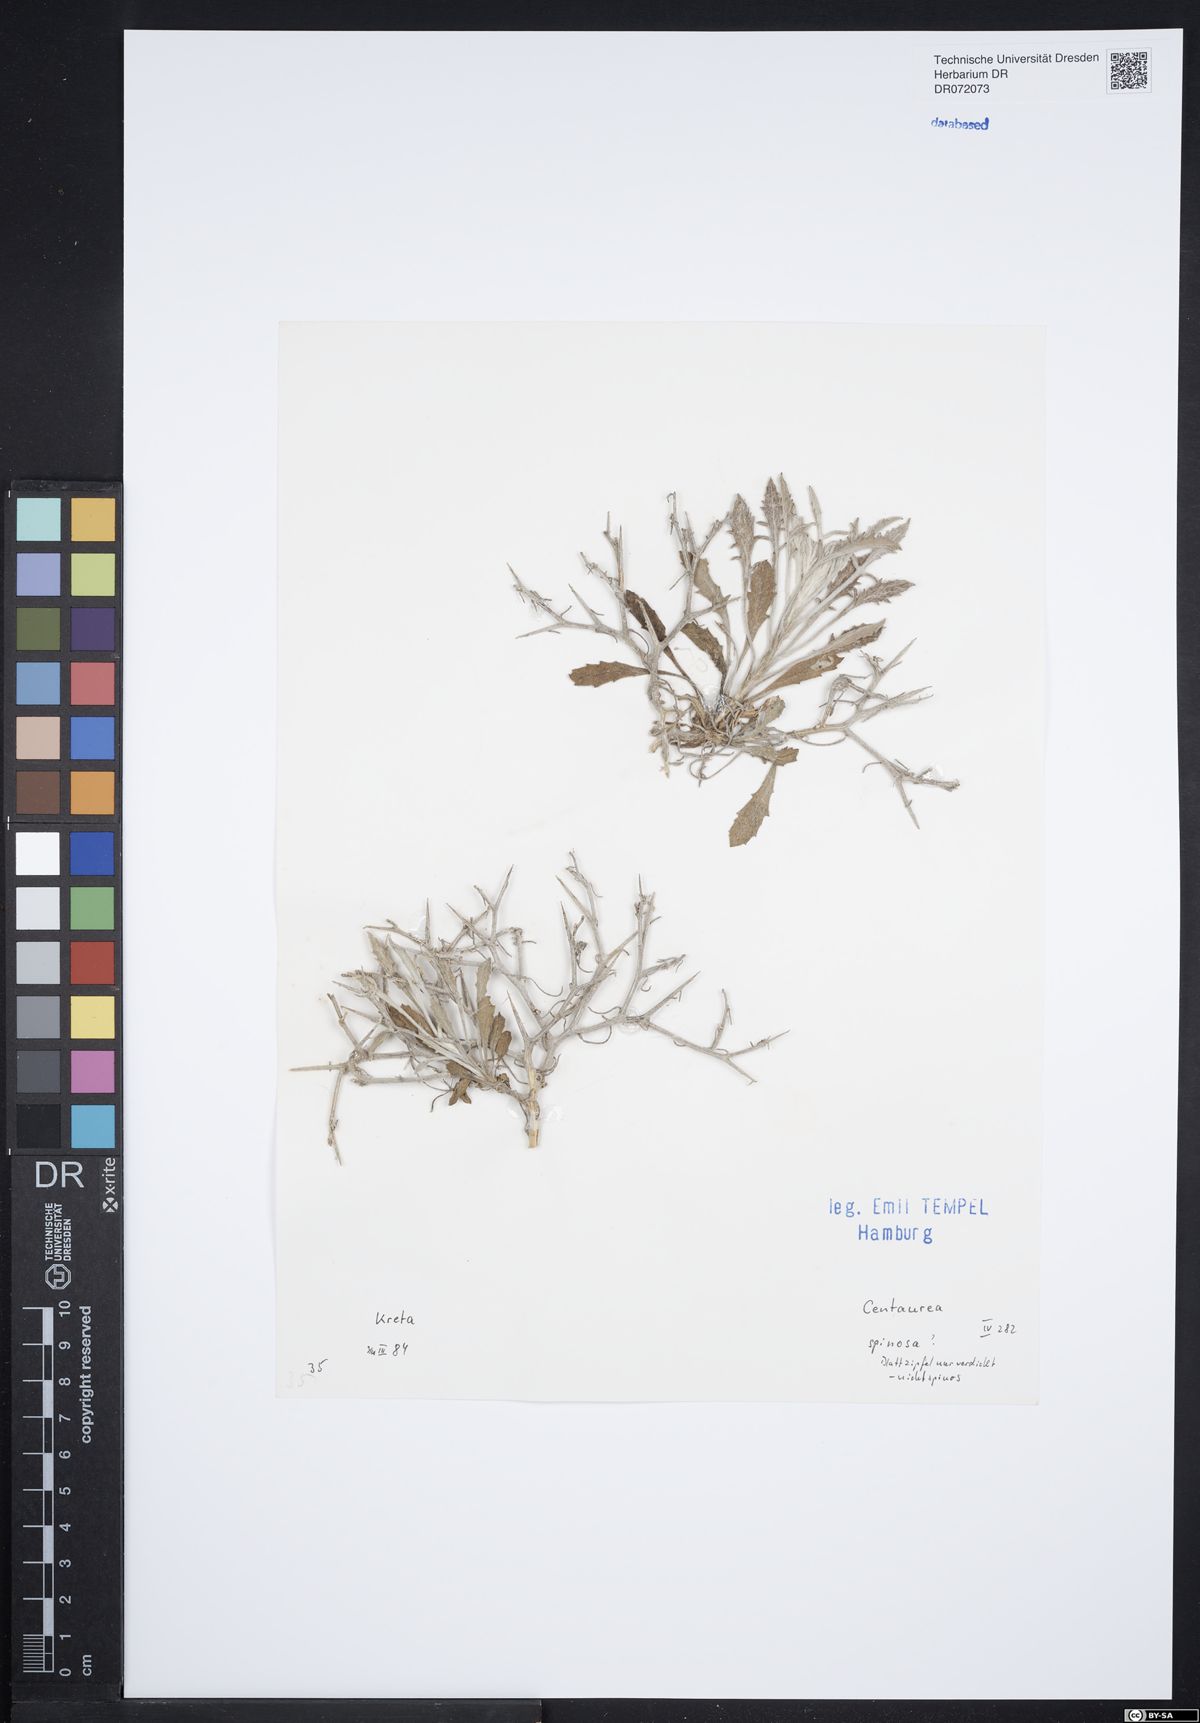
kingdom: Plantae
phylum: Tracheophyta
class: Magnoliopsida
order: Asterales
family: Asteraceae
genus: Centaurea
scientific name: Centaurea spinosa
